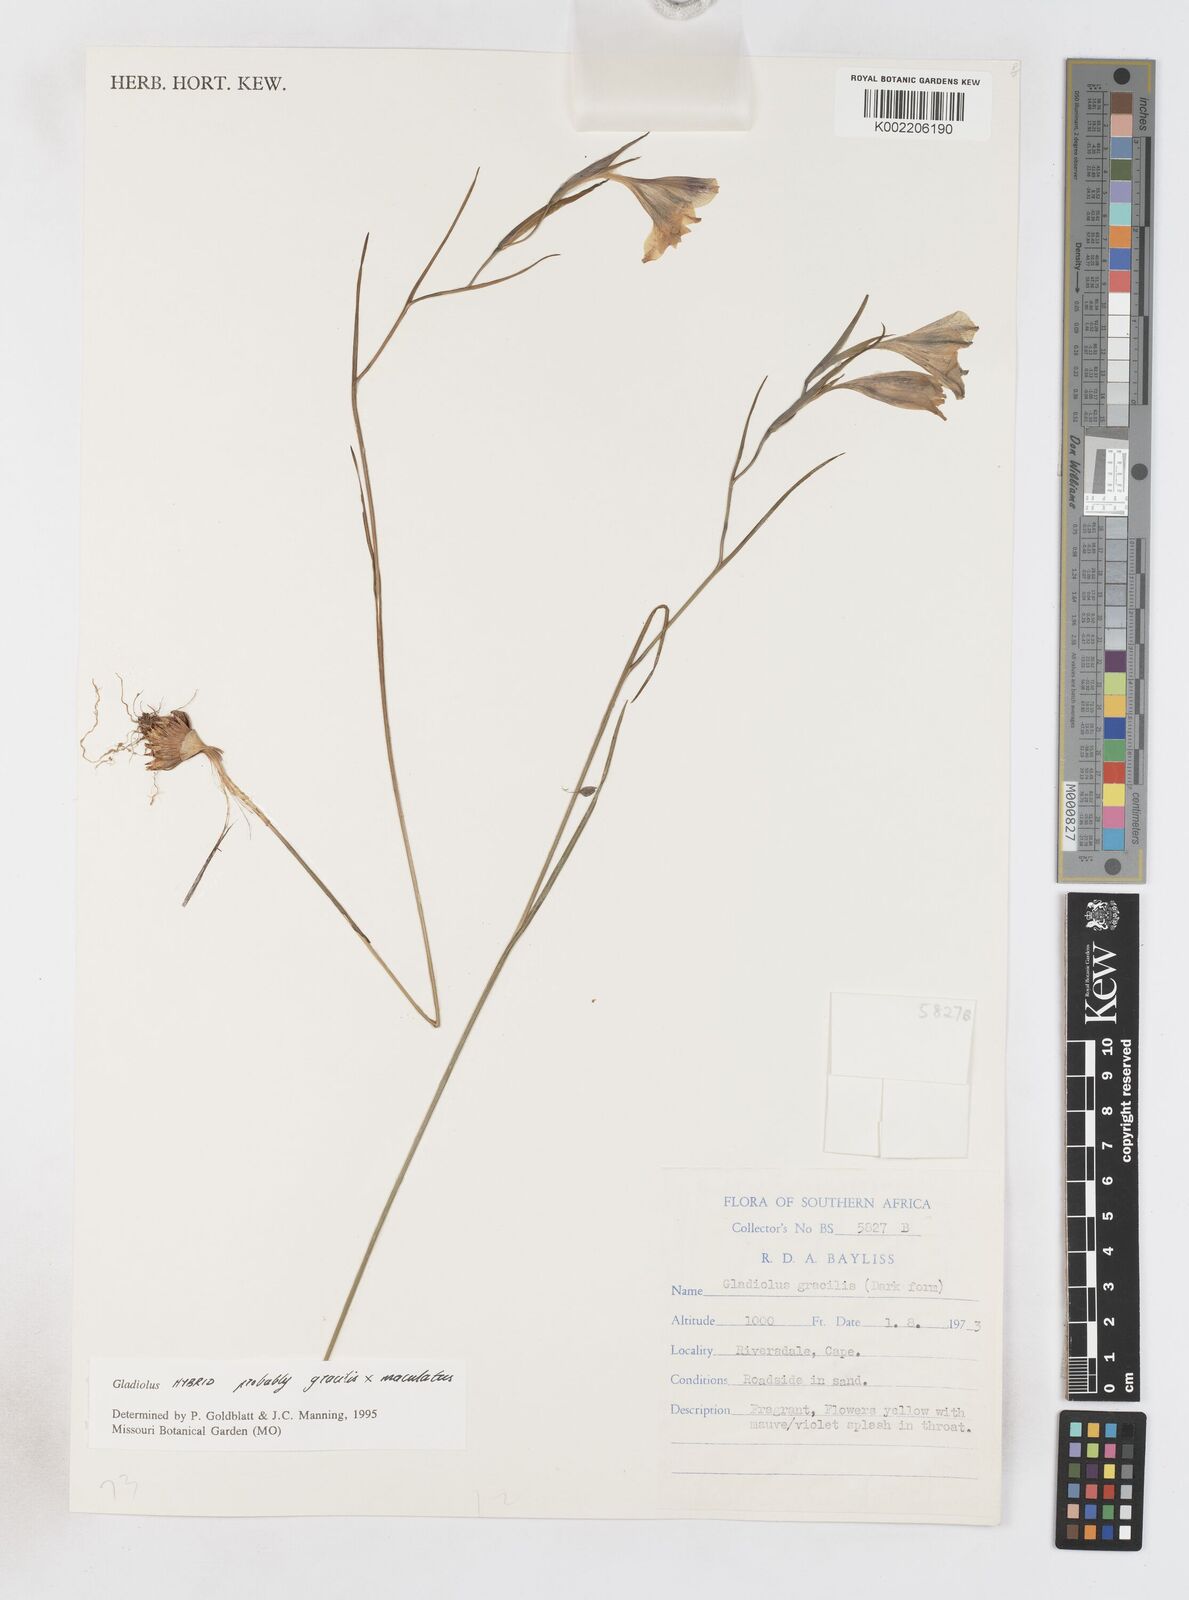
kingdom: Plantae
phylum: Tracheophyta
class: Liliopsida
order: Asparagales
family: Iridaceae
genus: Gladiolus
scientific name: Gladiolus gracilis
